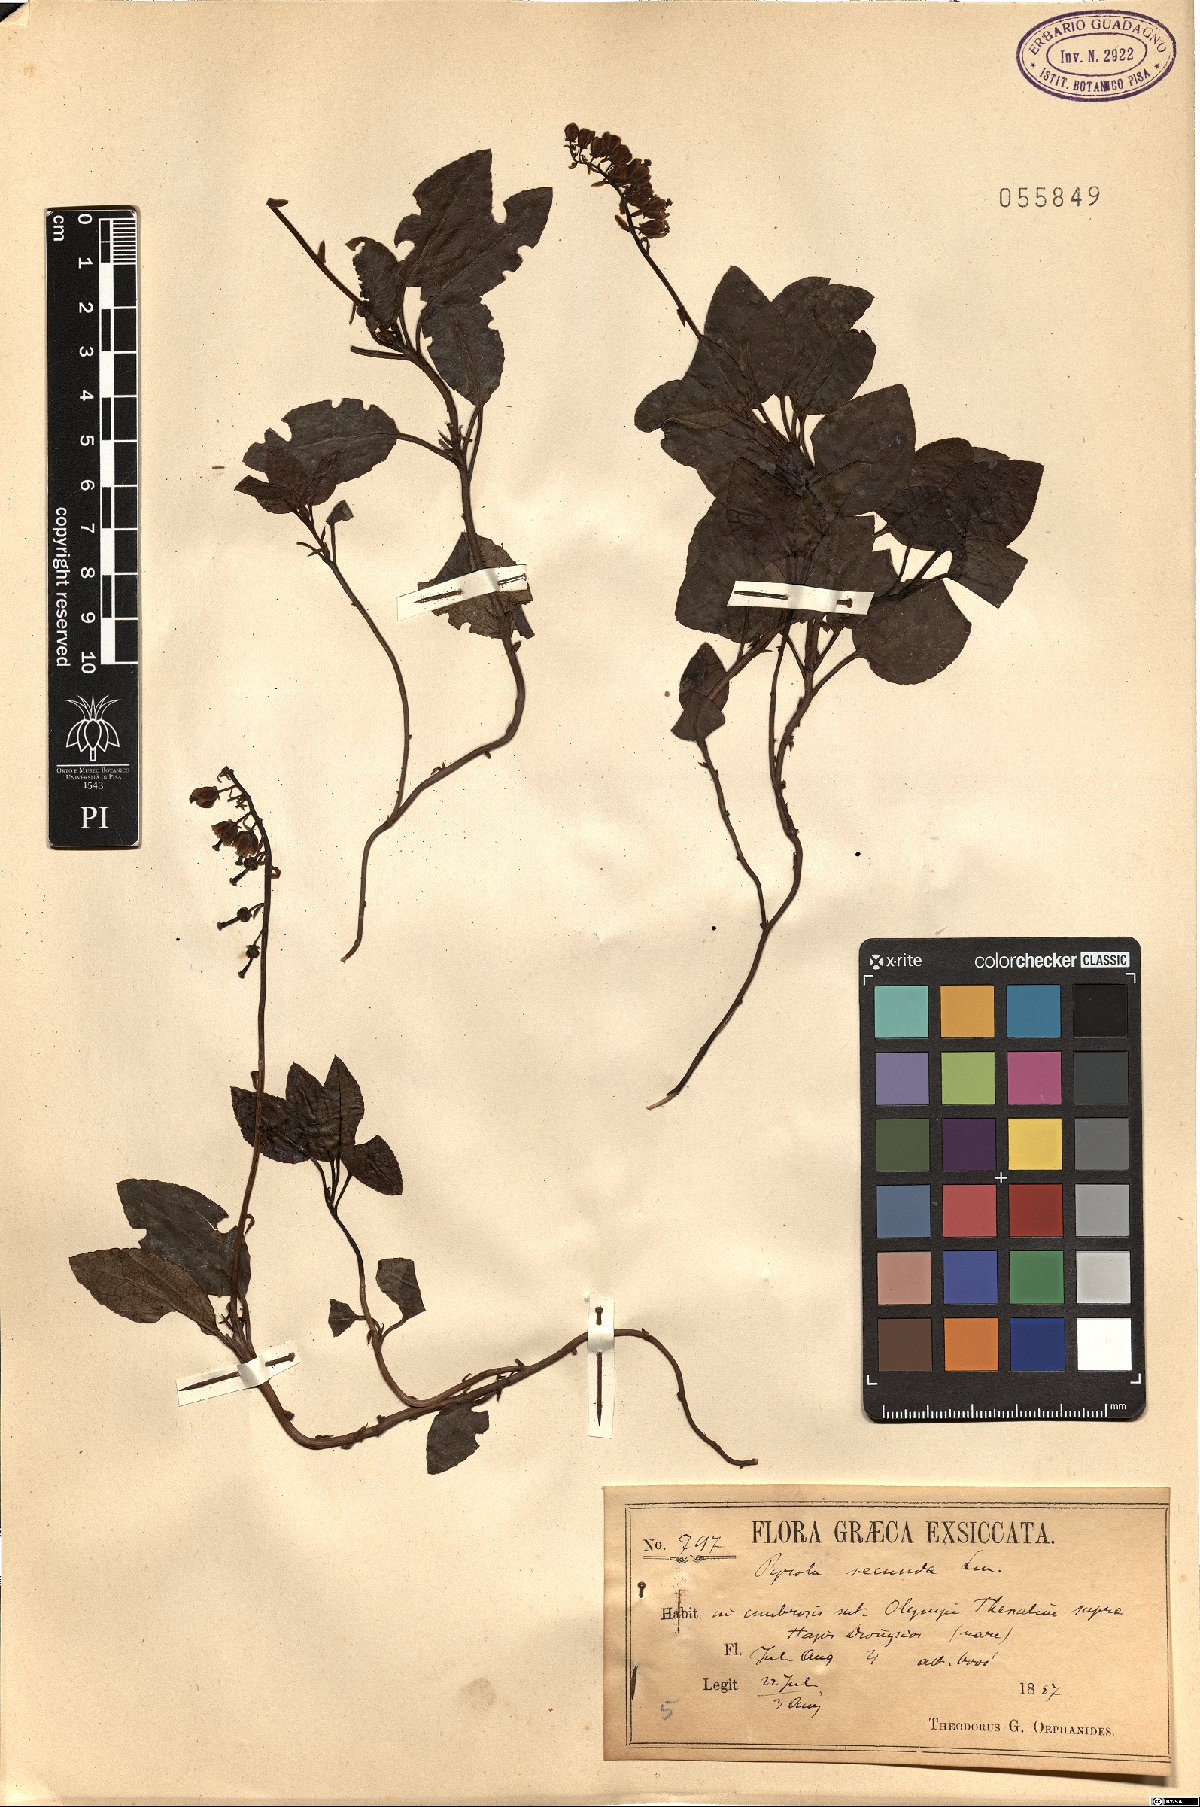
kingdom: Plantae
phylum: Tracheophyta
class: Magnoliopsida
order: Ericales
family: Ericaceae
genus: Orthilia
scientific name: Orthilia secunda
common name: One-sided orthilia
